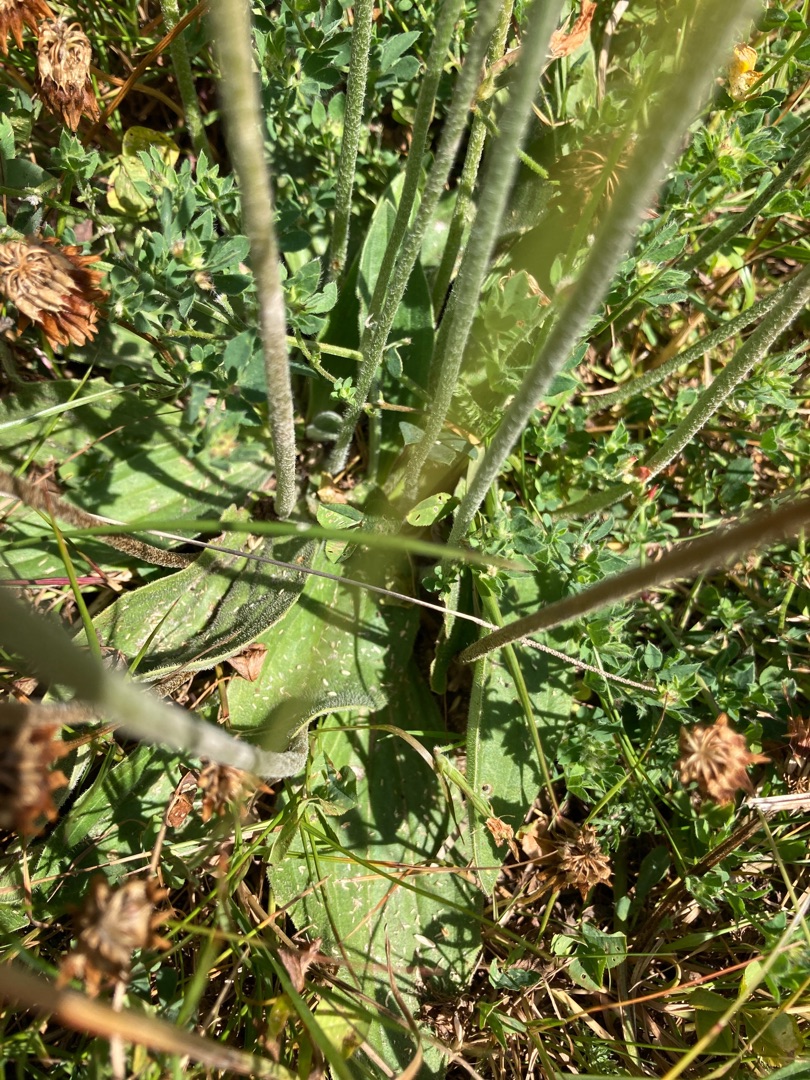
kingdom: Plantae
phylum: Tracheophyta
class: Magnoliopsida
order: Lamiales
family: Plantaginaceae
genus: Plantago
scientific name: Plantago media
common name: Dunet vejbred
